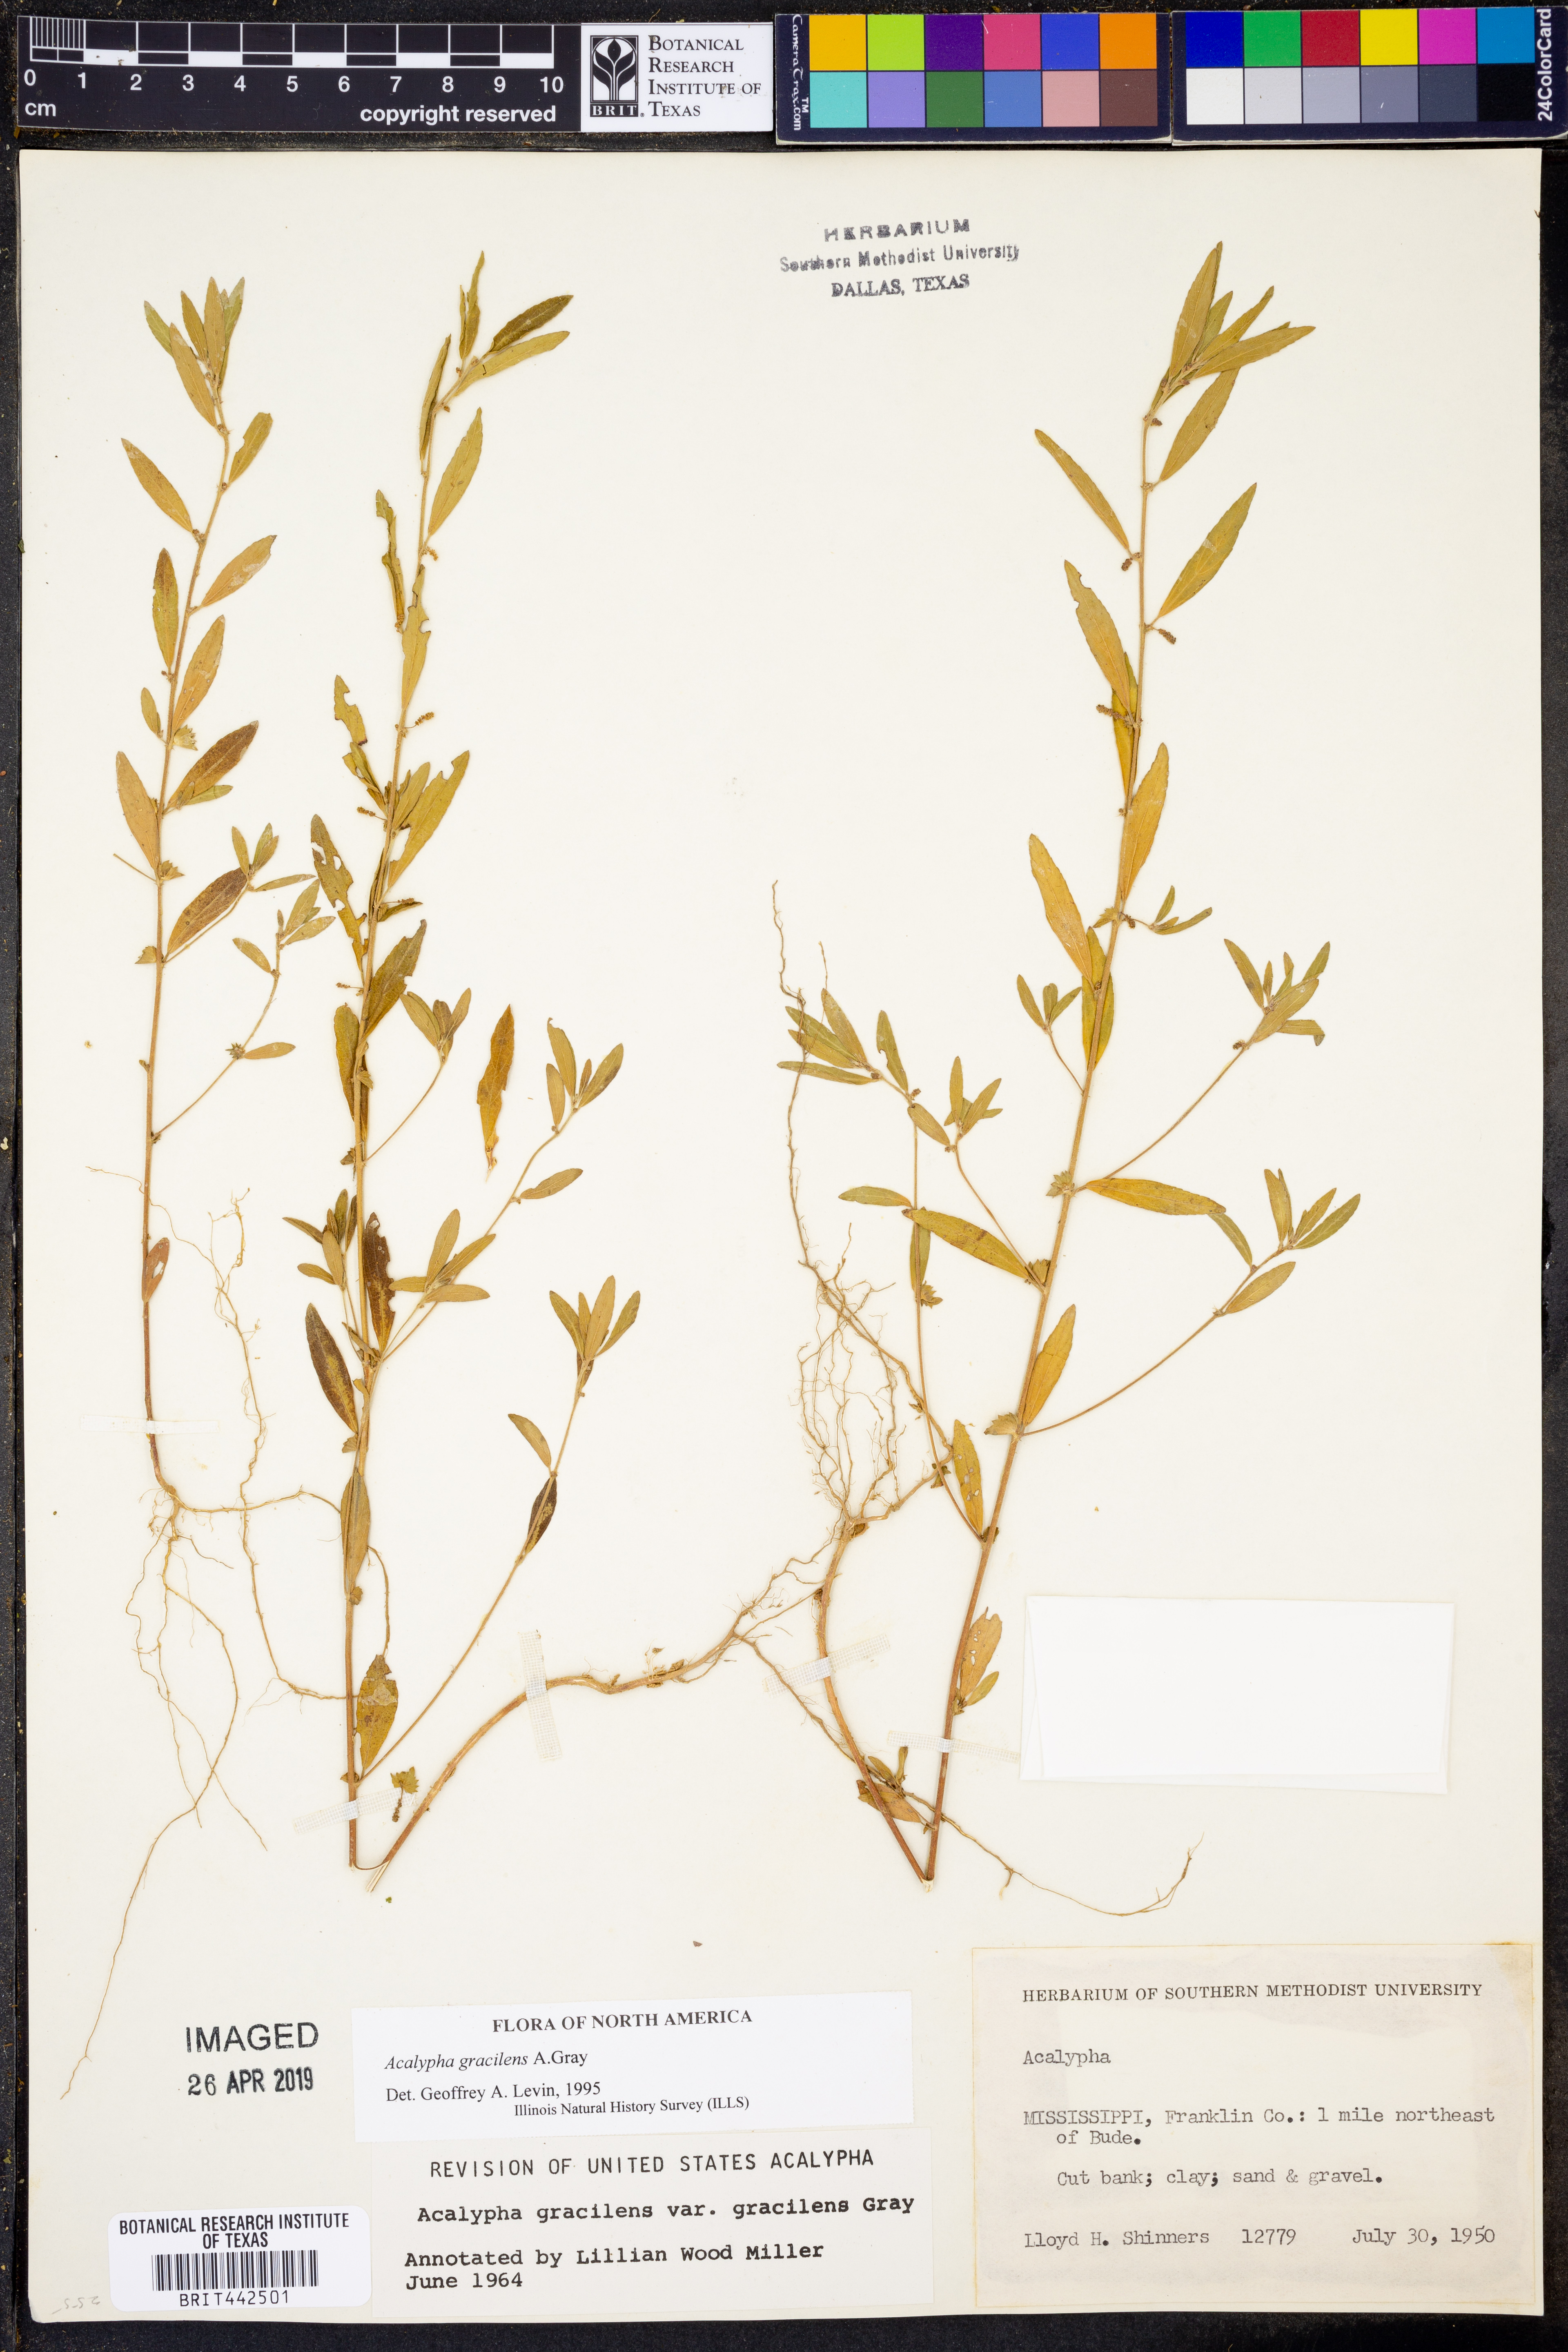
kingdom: Plantae
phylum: Tracheophyta
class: Magnoliopsida
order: Malpighiales
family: Euphorbiaceae
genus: Acalypha
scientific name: Acalypha gracilens
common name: Slender three-seeded mercury
